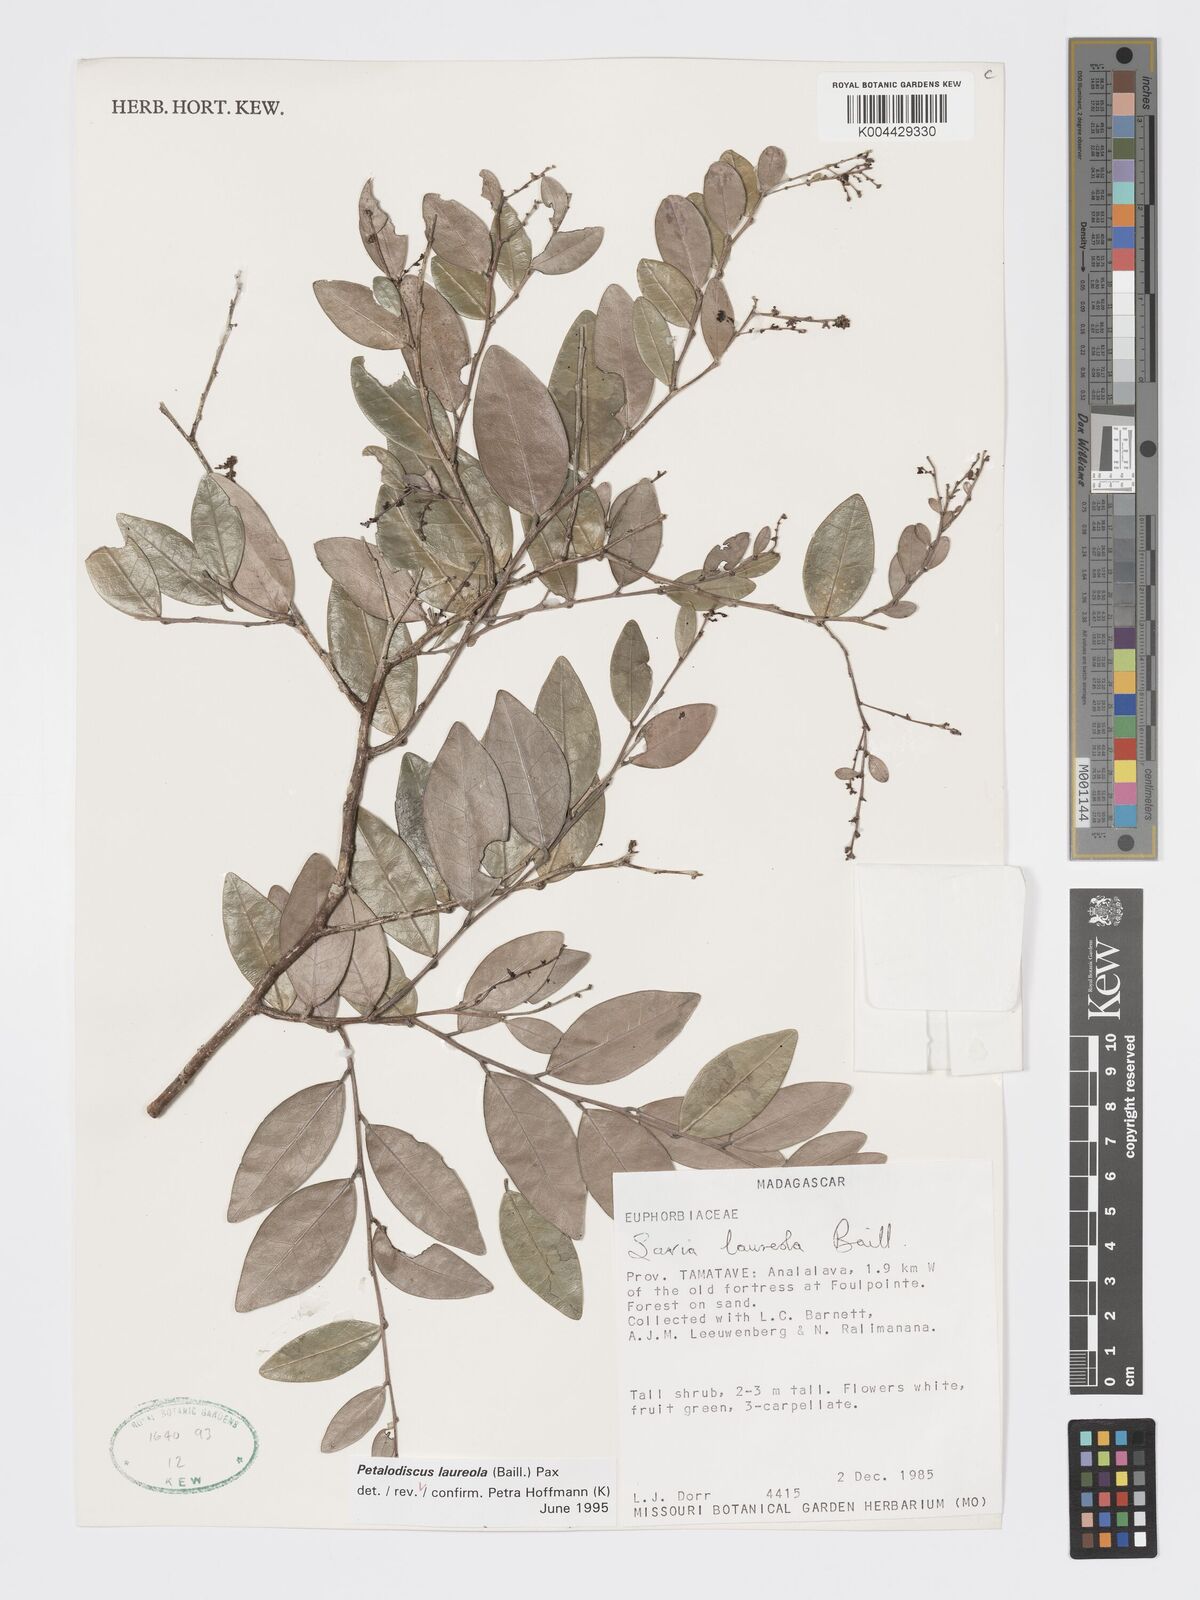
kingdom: Plantae
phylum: Tracheophyta
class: Magnoliopsida
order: Malpighiales
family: Phyllanthaceae
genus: Wielandia
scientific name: Wielandia laureola
